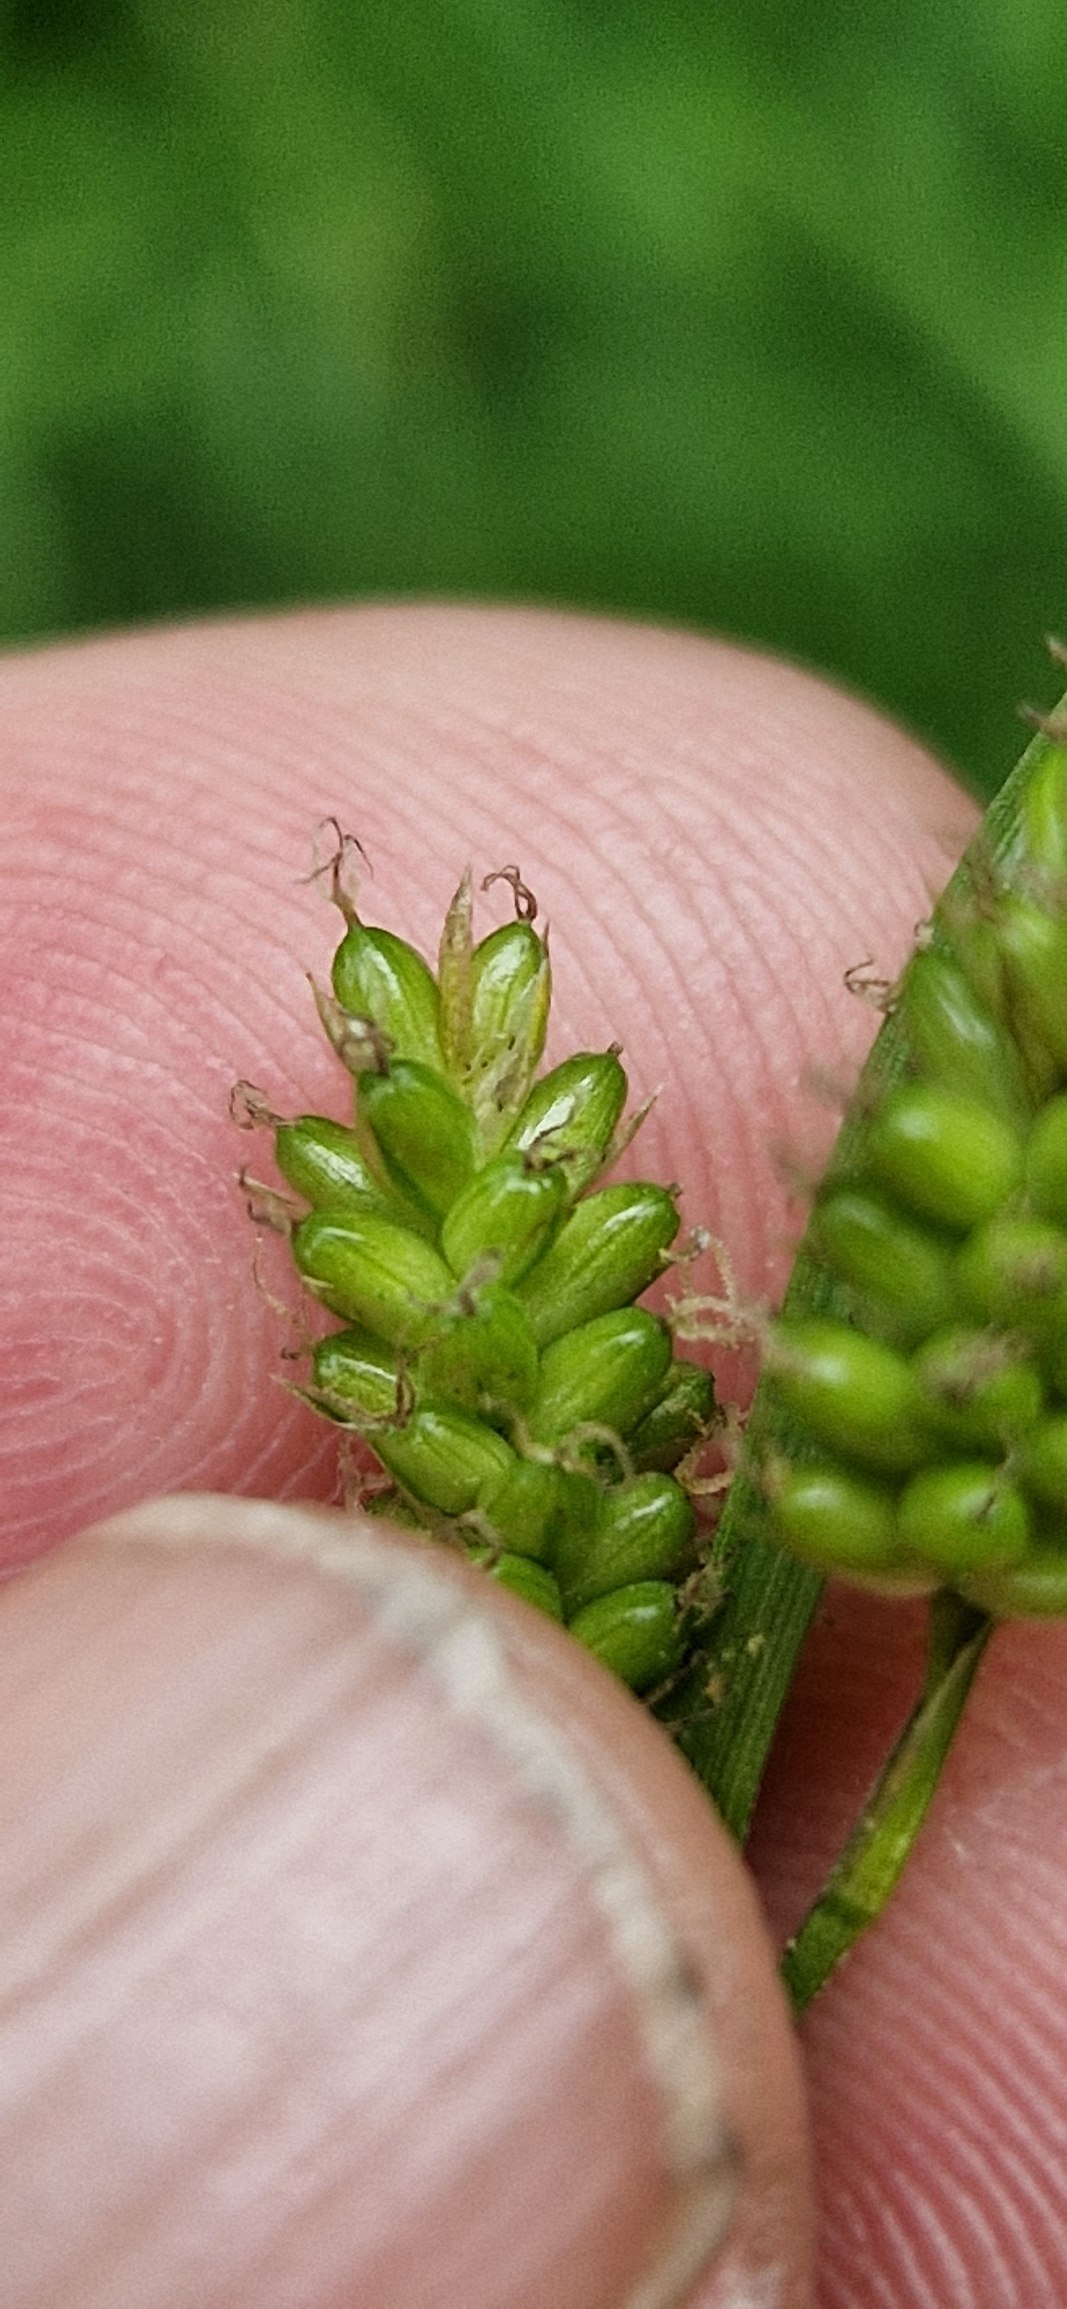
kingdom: Plantae
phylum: Tracheophyta
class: Liliopsida
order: Poales
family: Cyperaceae
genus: Carex
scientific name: Carex pallescens
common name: Bleg star
